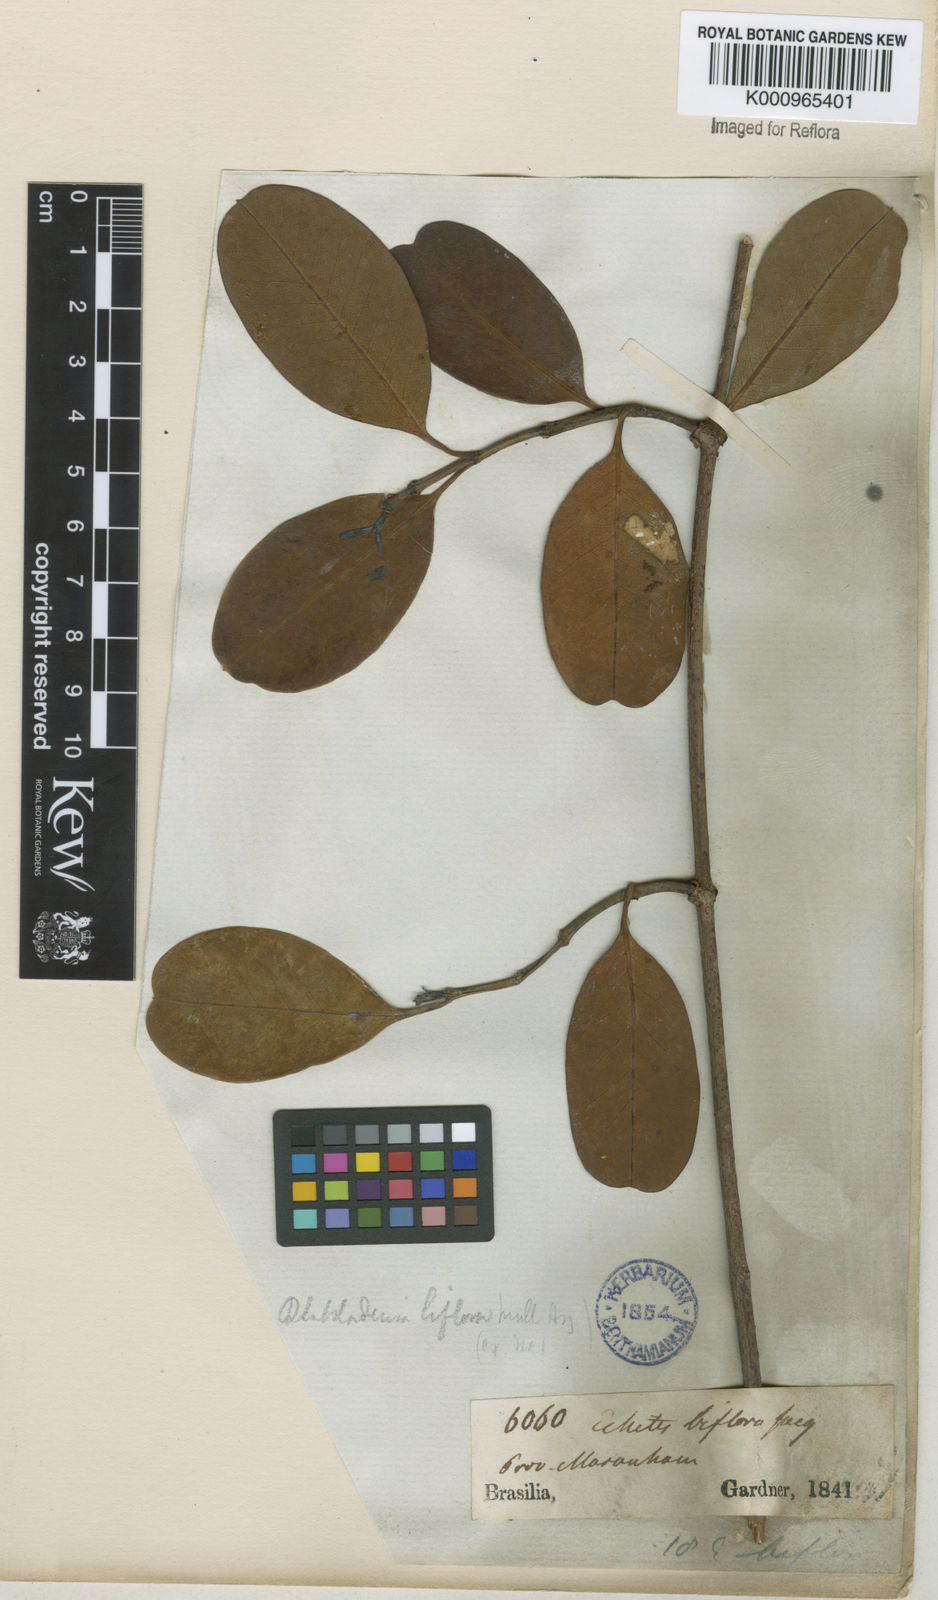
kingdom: Plantae
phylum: Tracheophyta
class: Magnoliopsida
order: Gentianales
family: Apocynaceae
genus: Rhabdadenia
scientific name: Rhabdadenia
